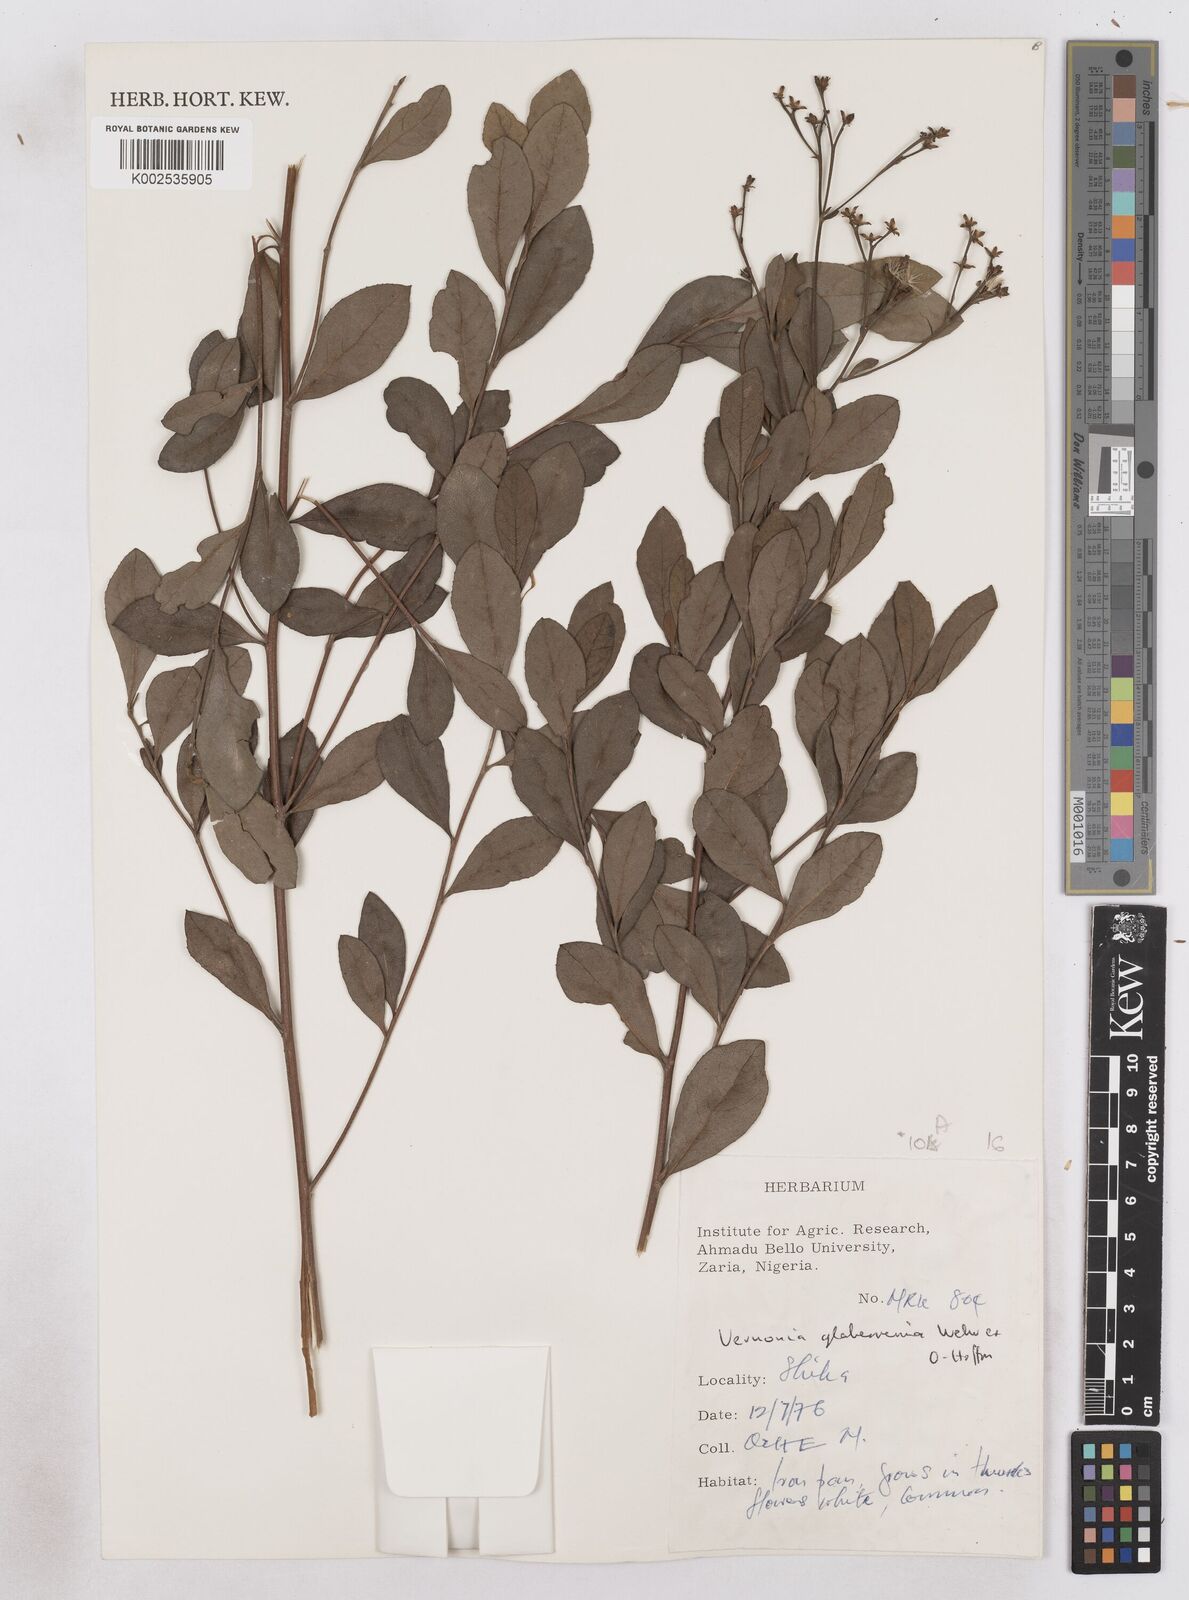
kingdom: Plantae
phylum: Tracheophyta
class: Magnoliopsida
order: Asterales
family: Asteraceae
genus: Gymnanthemum
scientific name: Gymnanthemum glaberrimum
